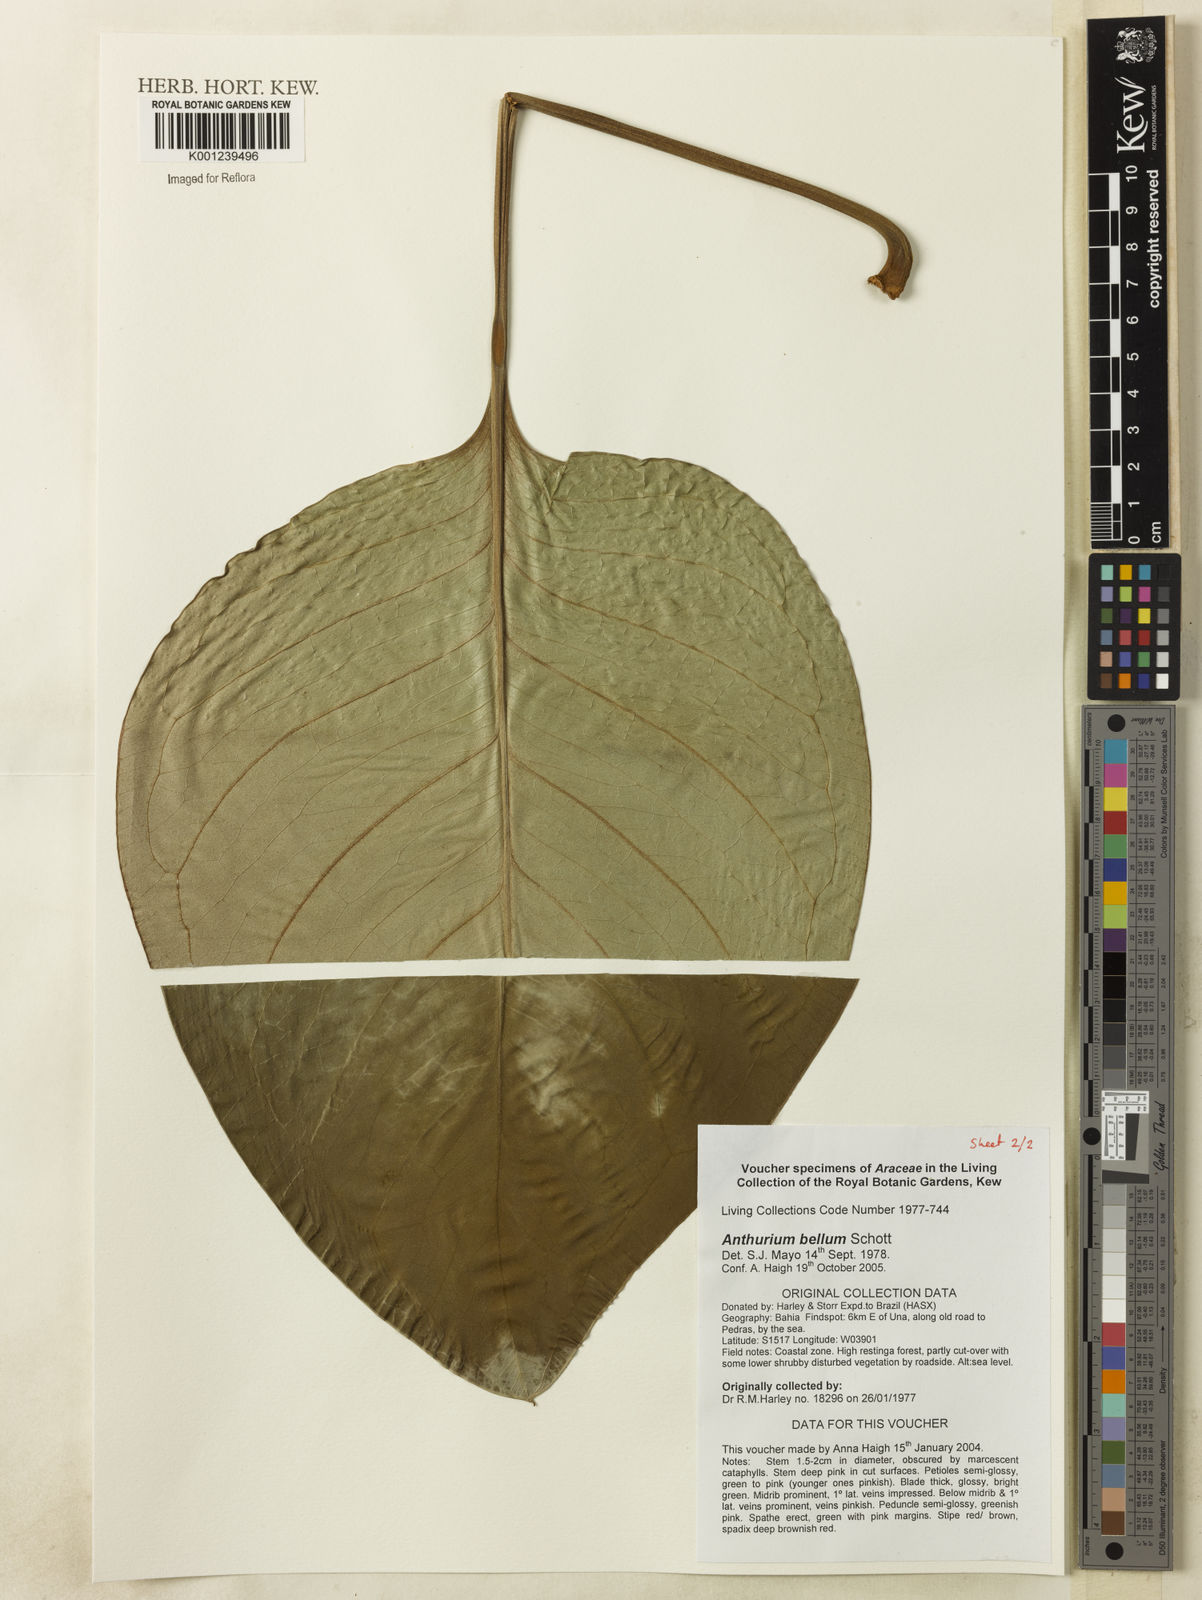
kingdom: Plantae
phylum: Tracheophyta
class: Liliopsida
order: Alismatales
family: Araceae
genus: Anthurium
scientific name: Anthurium
